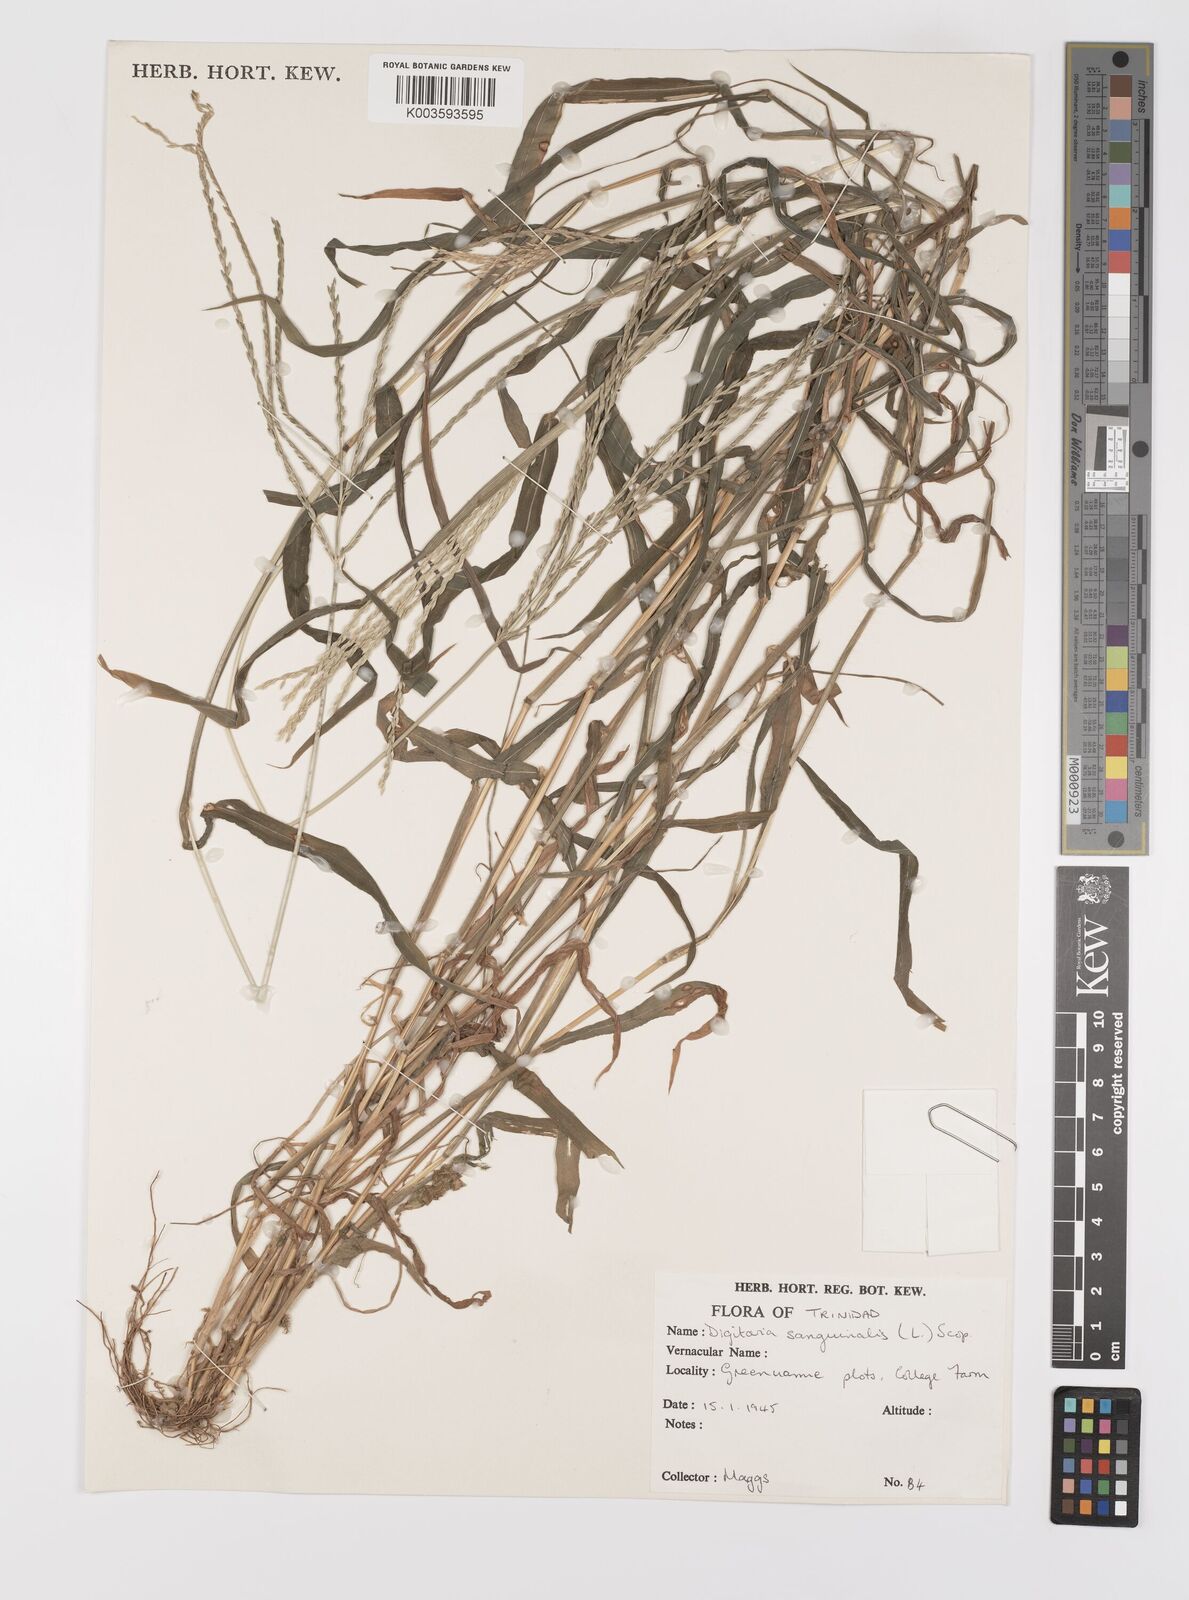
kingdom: Plantae
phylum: Tracheophyta
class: Liliopsida
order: Poales
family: Poaceae
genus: Digitaria
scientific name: Digitaria ciliaris
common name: Tropical finger-grass
